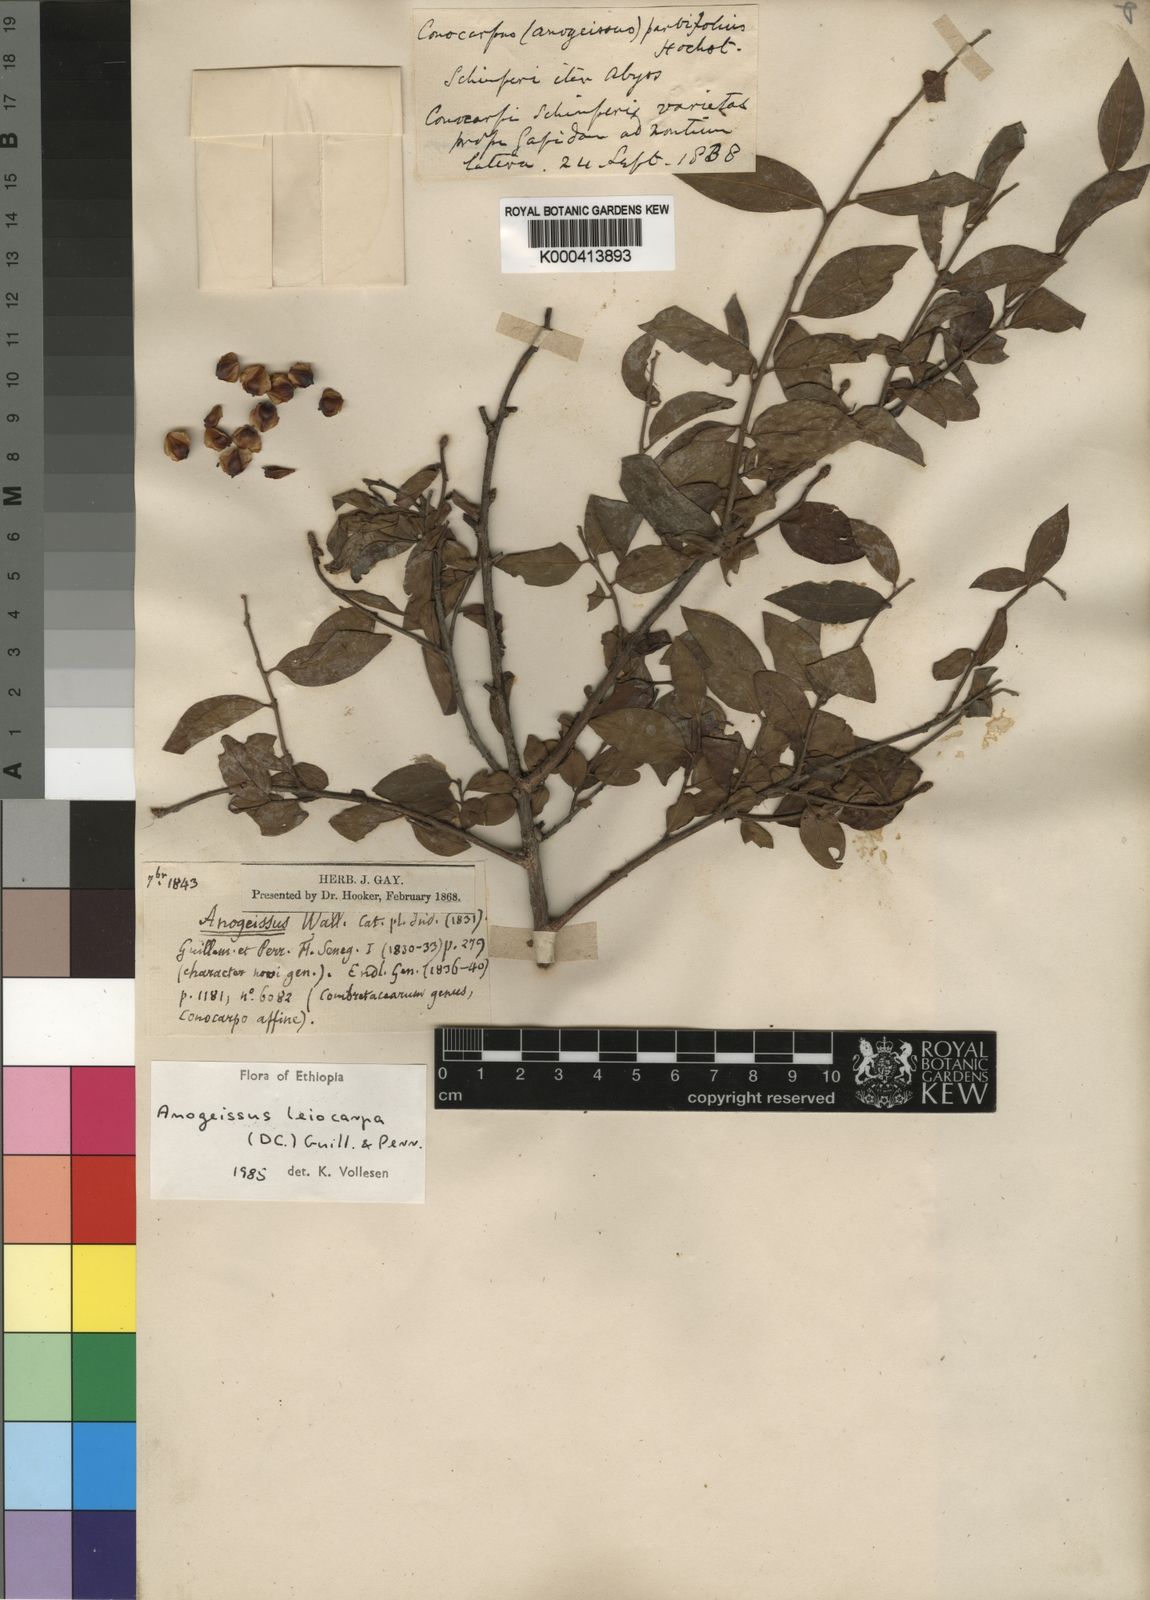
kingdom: Plantae
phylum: Tracheophyta
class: Magnoliopsida
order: Myrtales
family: Combretaceae
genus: Terminalia
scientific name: Terminalia leiocarpa
